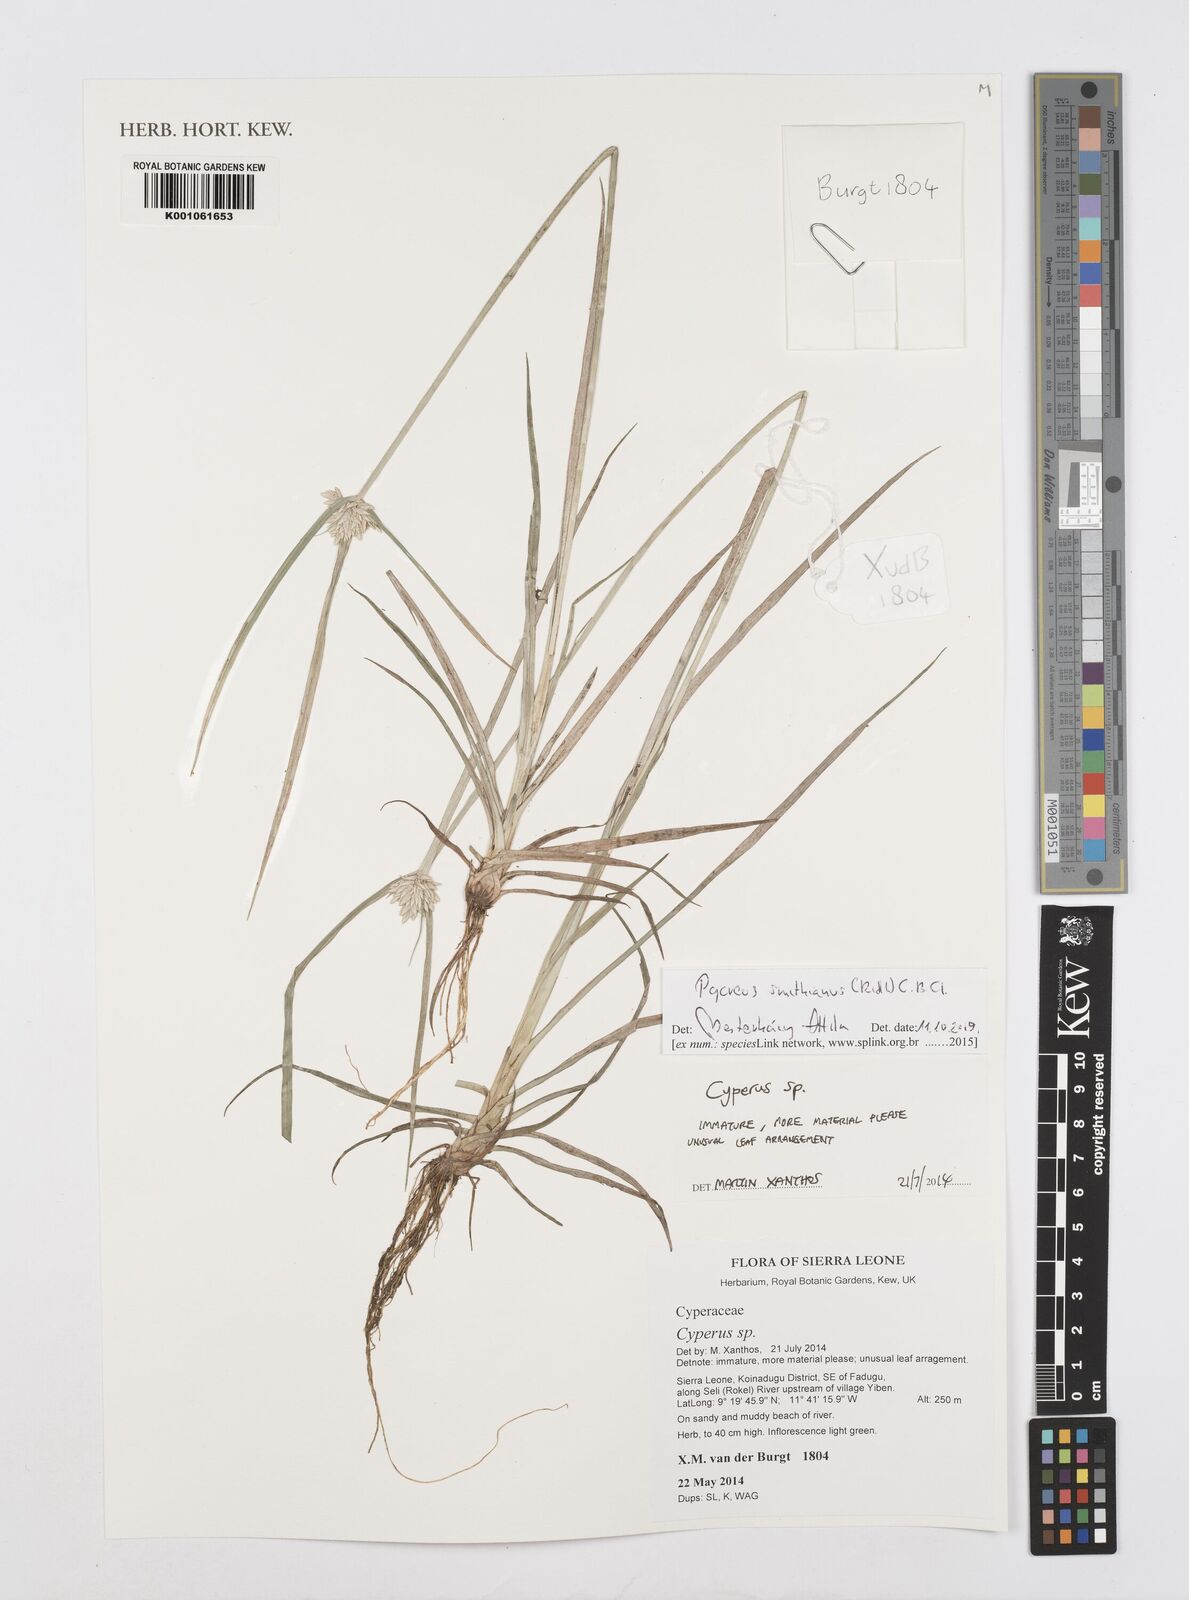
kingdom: Plantae
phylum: Tracheophyta
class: Liliopsida
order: Poales
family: Cyperaceae
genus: Cyperus
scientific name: Cyperus smithianus
